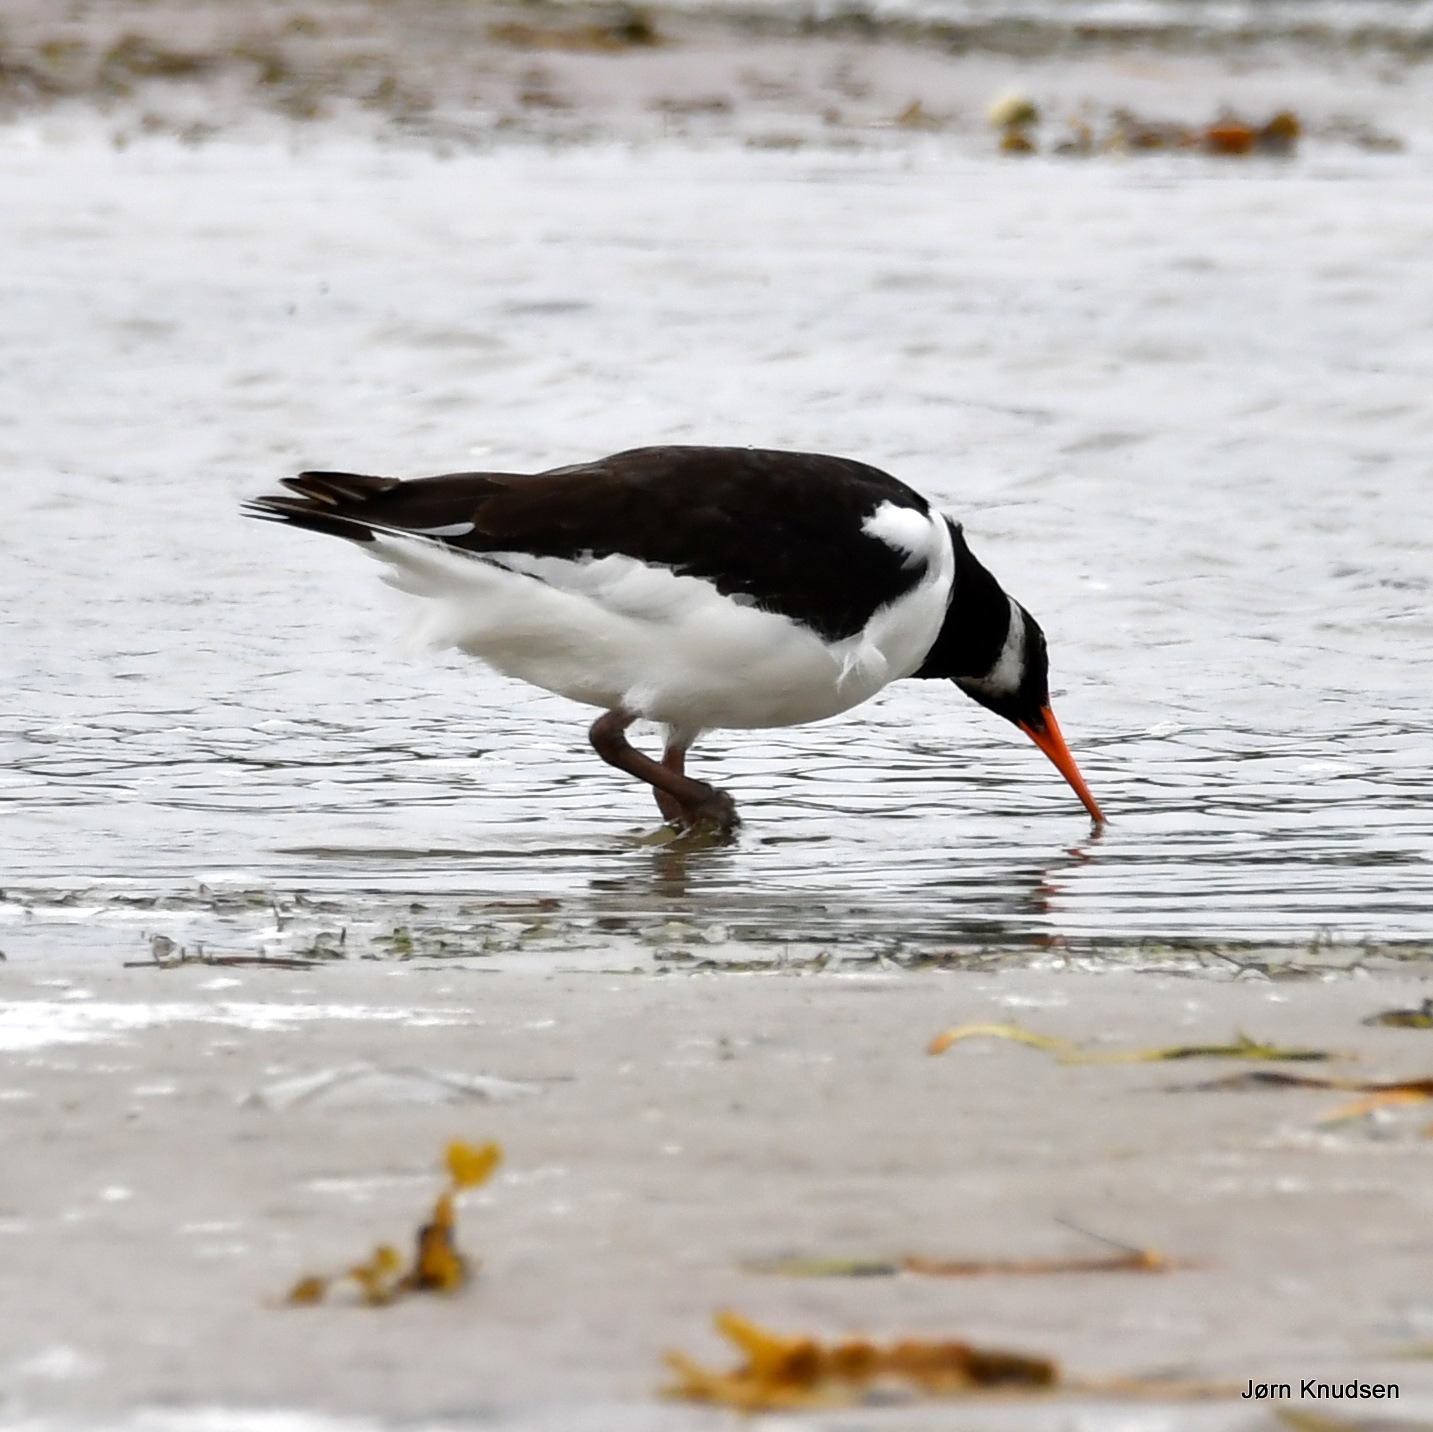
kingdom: Animalia
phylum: Chordata
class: Aves
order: Charadriiformes
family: Haematopodidae
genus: Haematopus
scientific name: Haematopus ostralegus
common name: Strandskade
